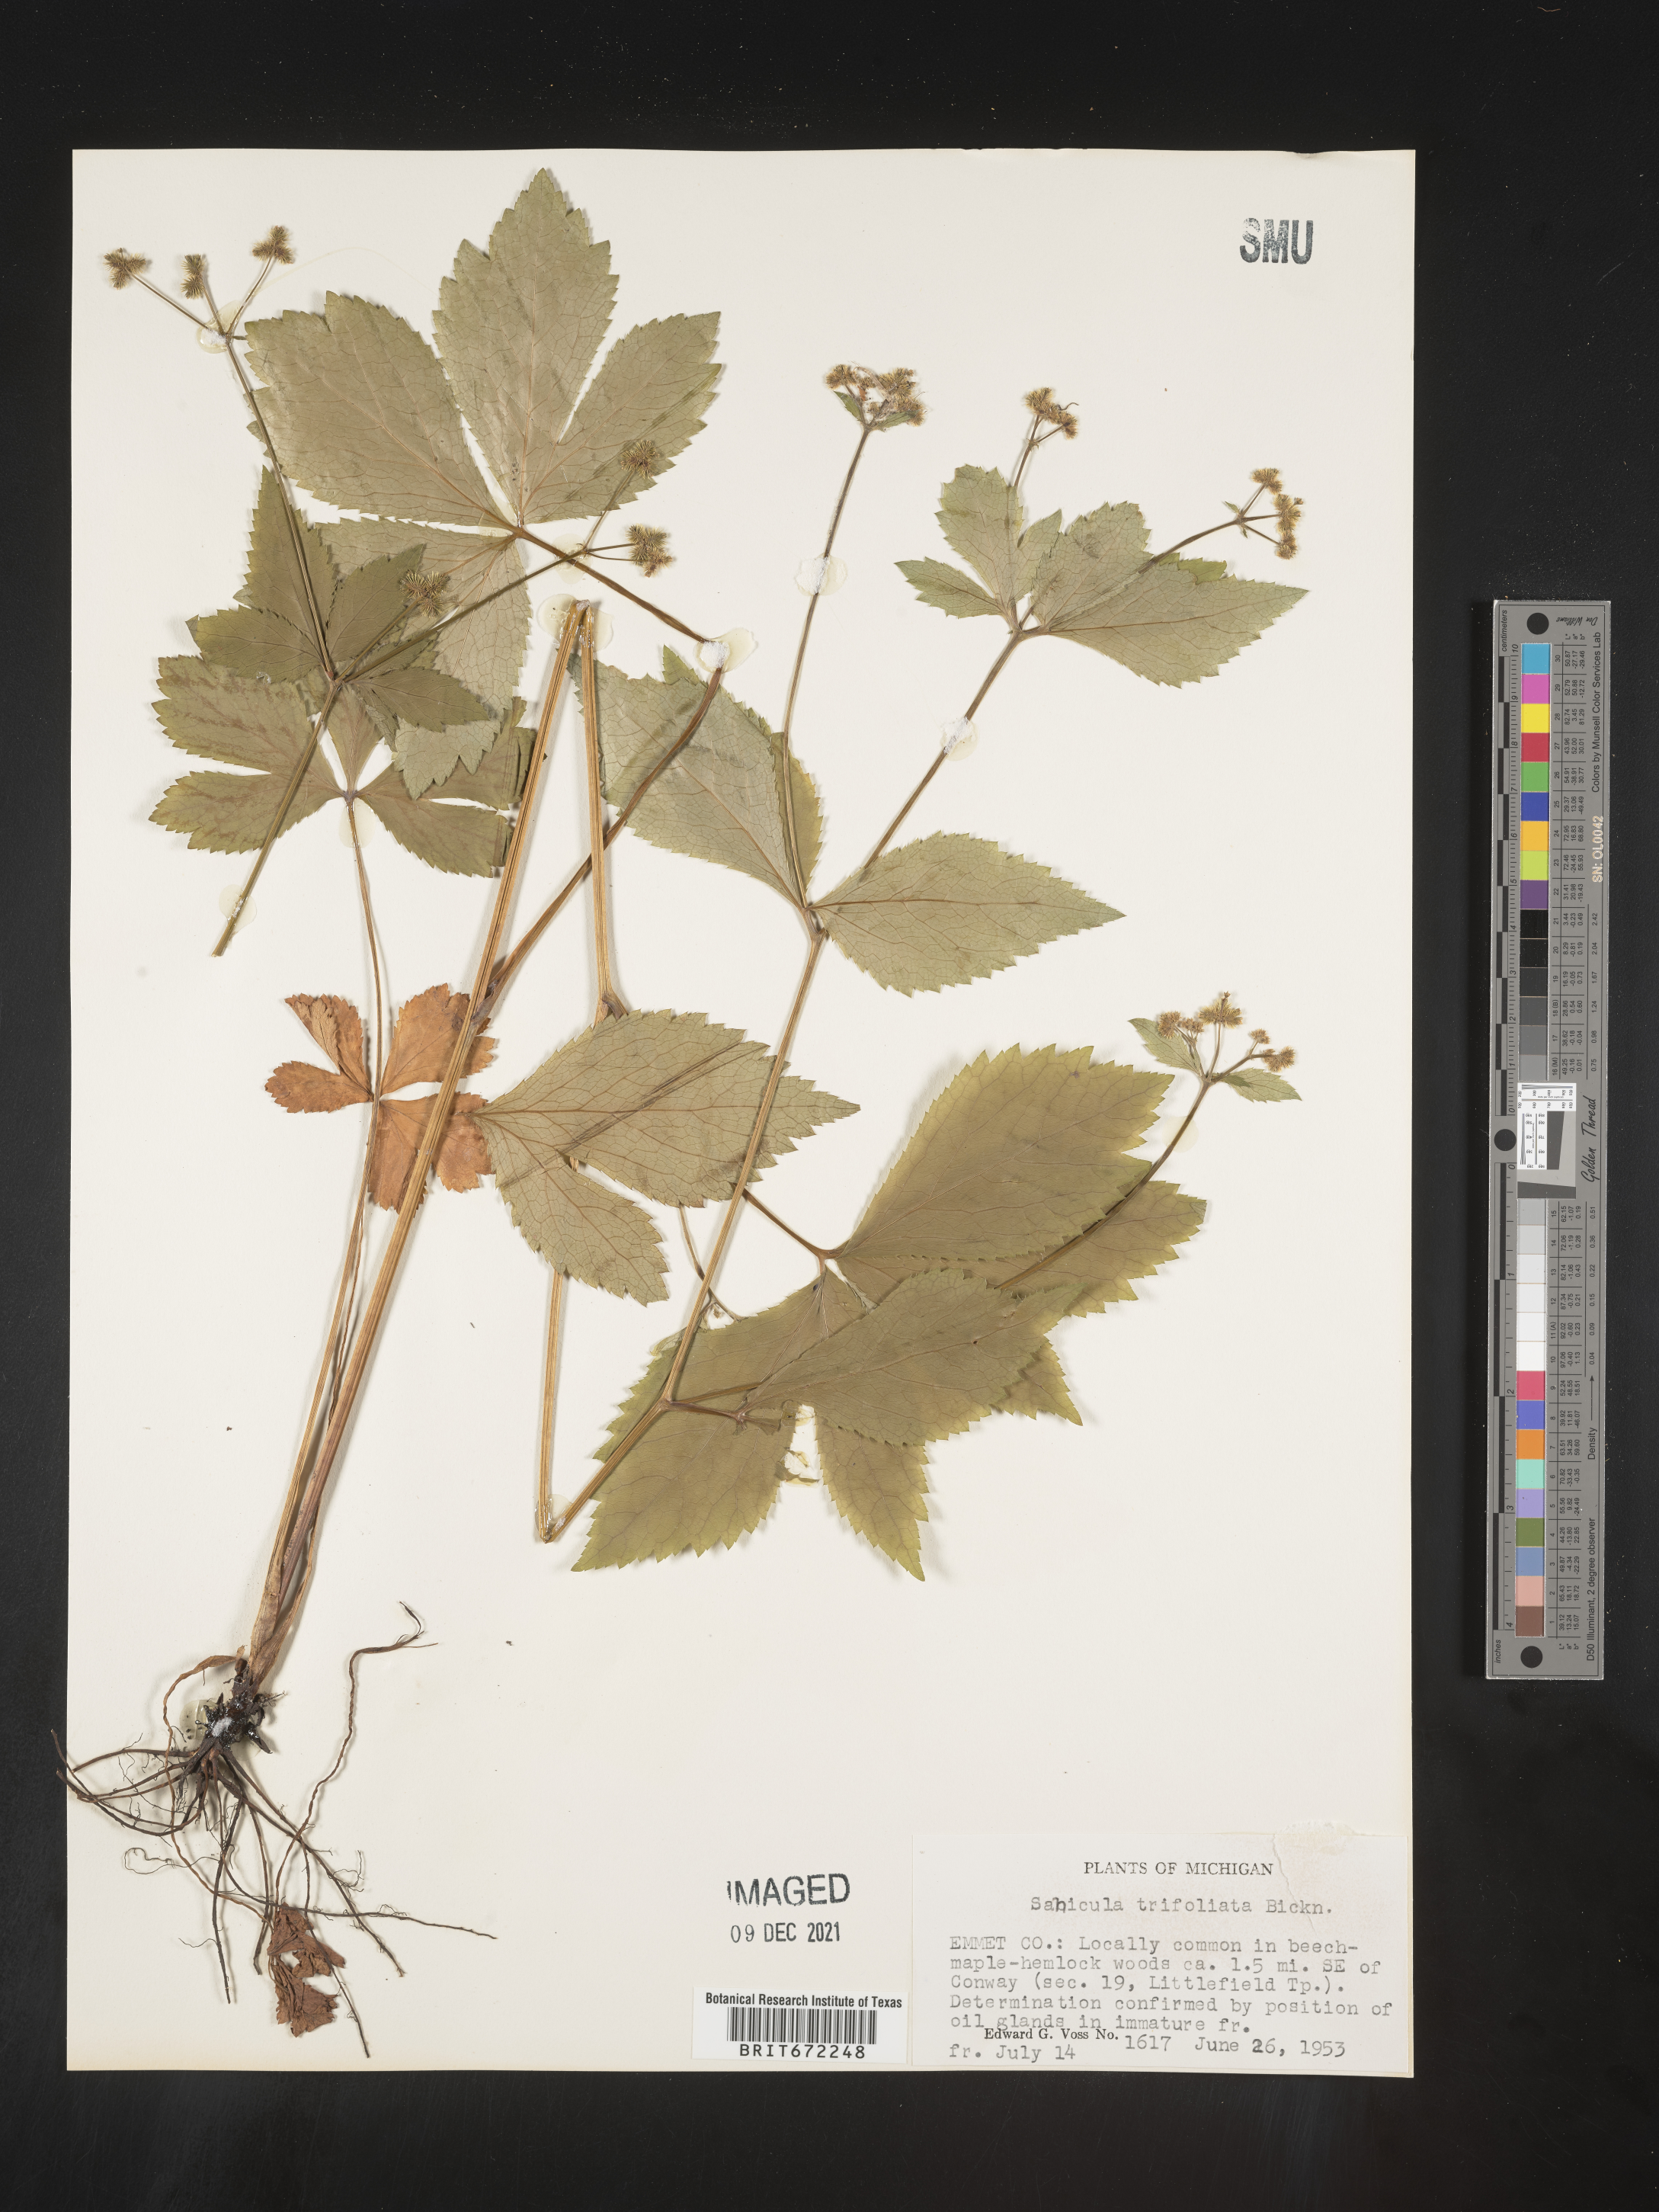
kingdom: Plantae
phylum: Tracheophyta
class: Magnoliopsida
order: Apiales
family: Apiaceae
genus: Sanicula
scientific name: Sanicula
